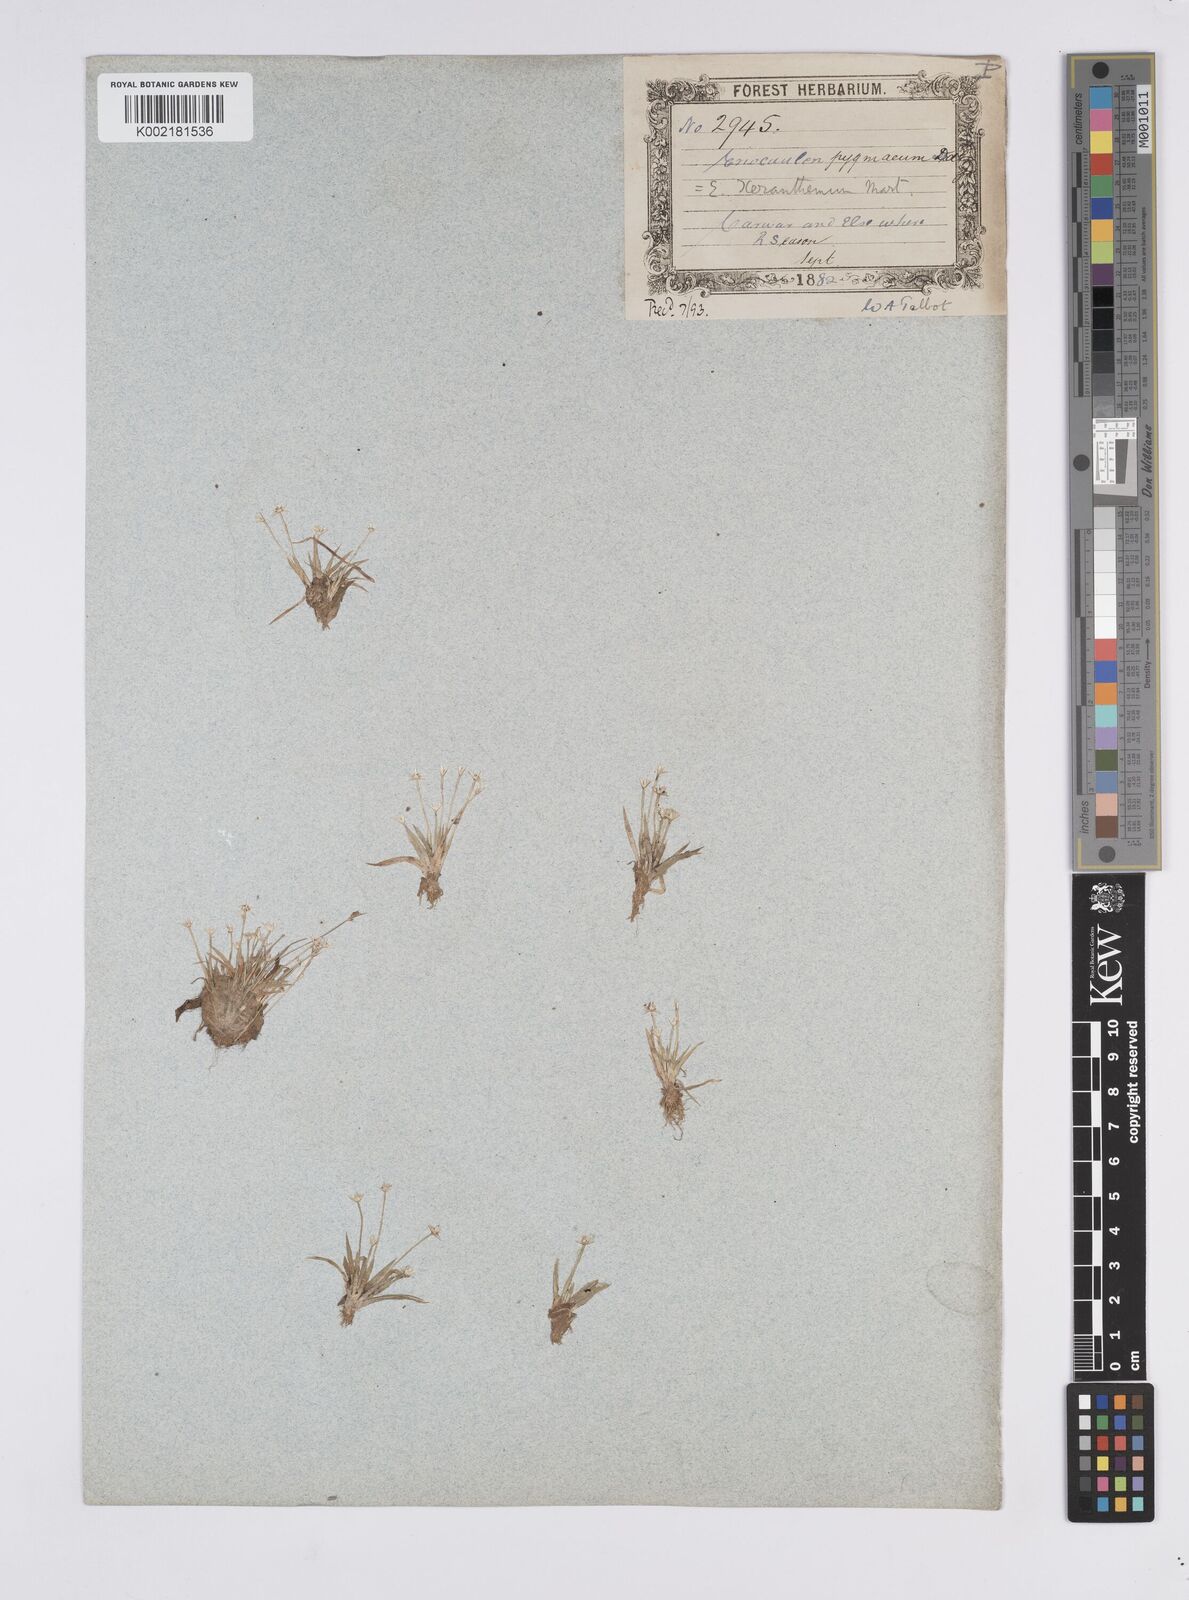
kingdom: Plantae
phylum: Tracheophyta
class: Liliopsida
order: Poales
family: Eriocaulaceae
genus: Eriocaulon
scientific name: Eriocaulon xeranthemum
